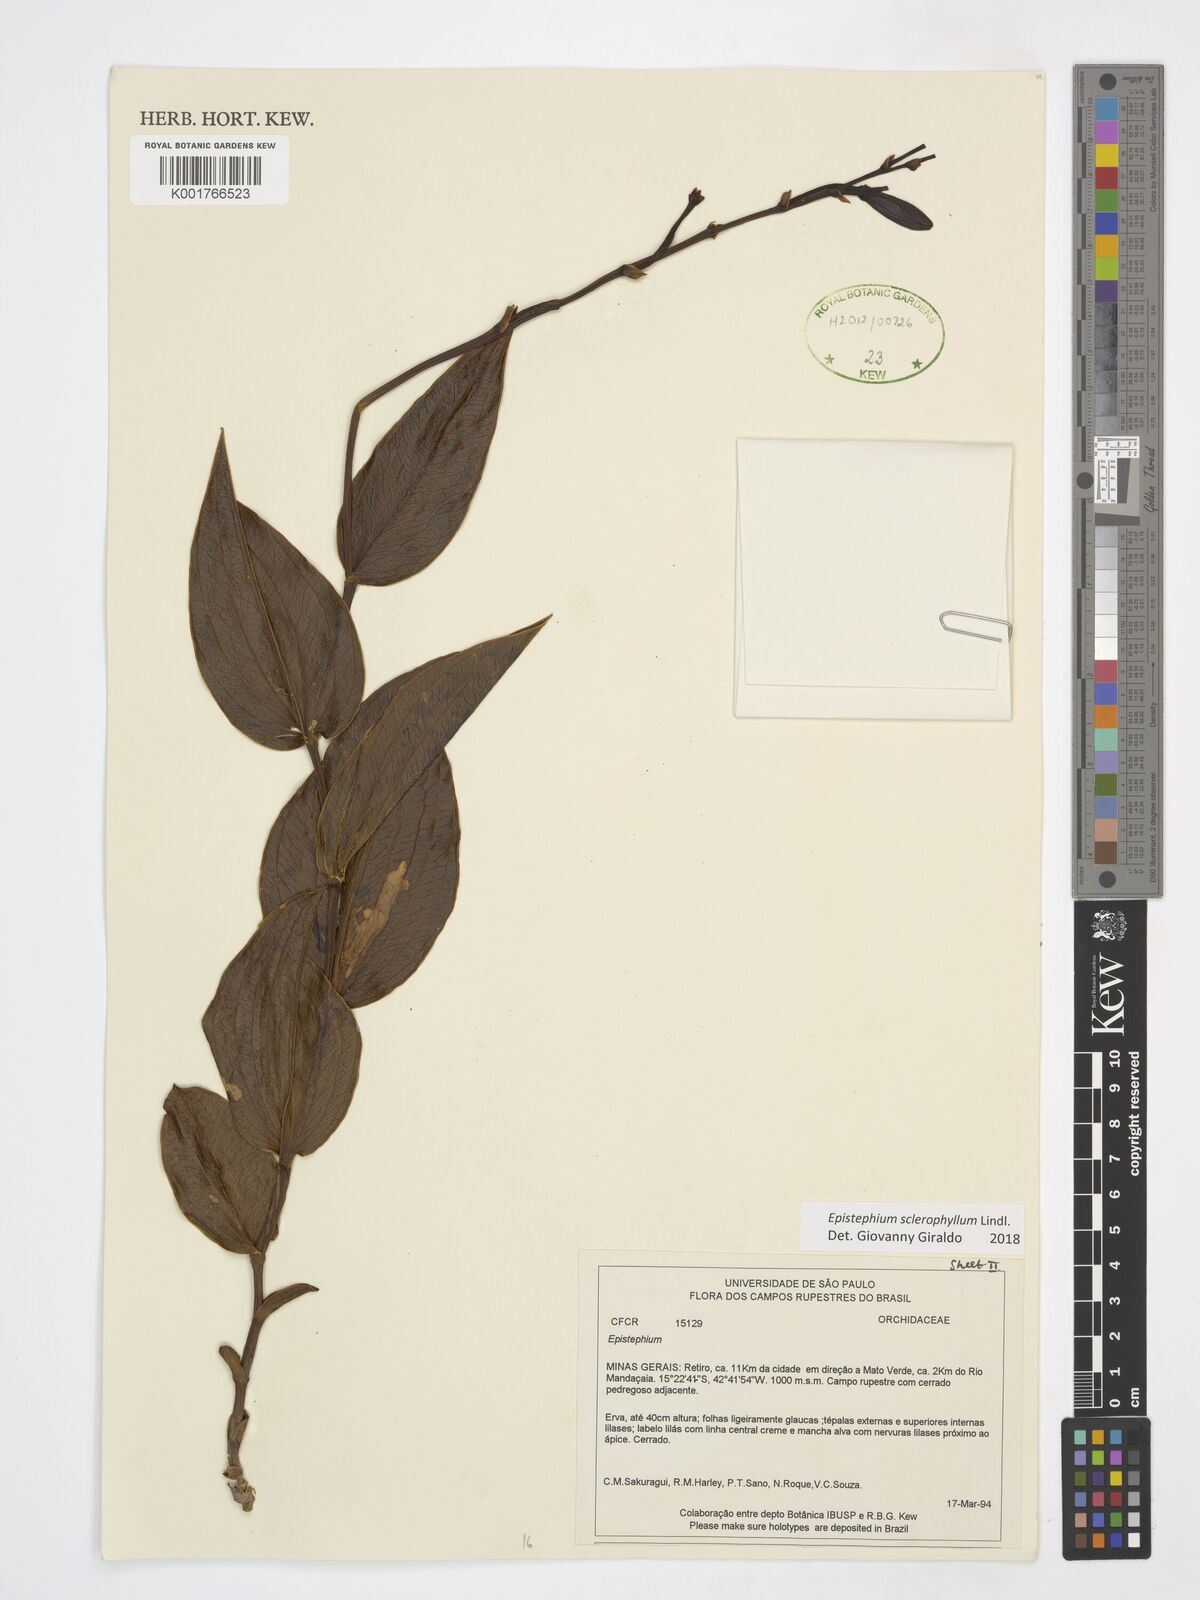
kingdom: Plantae
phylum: Tracheophyta
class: Liliopsida
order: Asparagales
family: Orchidaceae
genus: Epistephium
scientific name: Epistephium sclerophyllum
